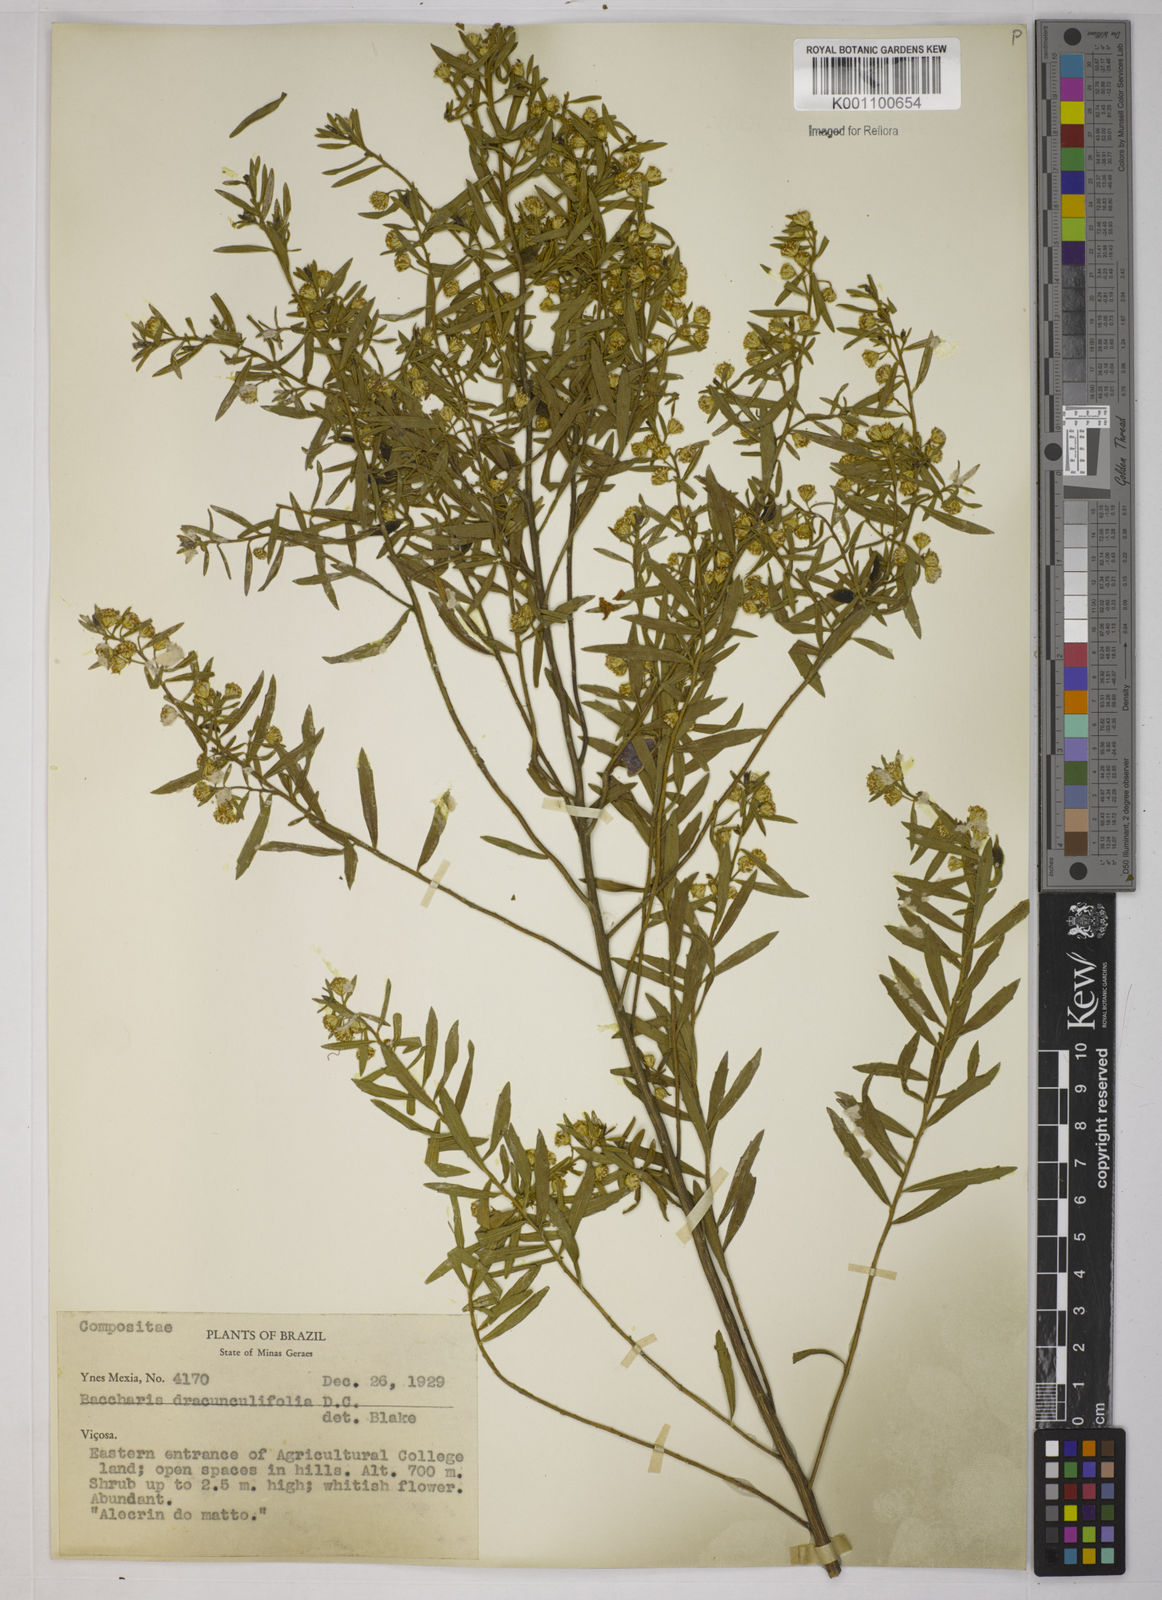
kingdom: Plantae
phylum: Tracheophyta
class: Magnoliopsida
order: Asterales
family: Asteraceae
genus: Baccharis
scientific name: Baccharis dracunculifolia
